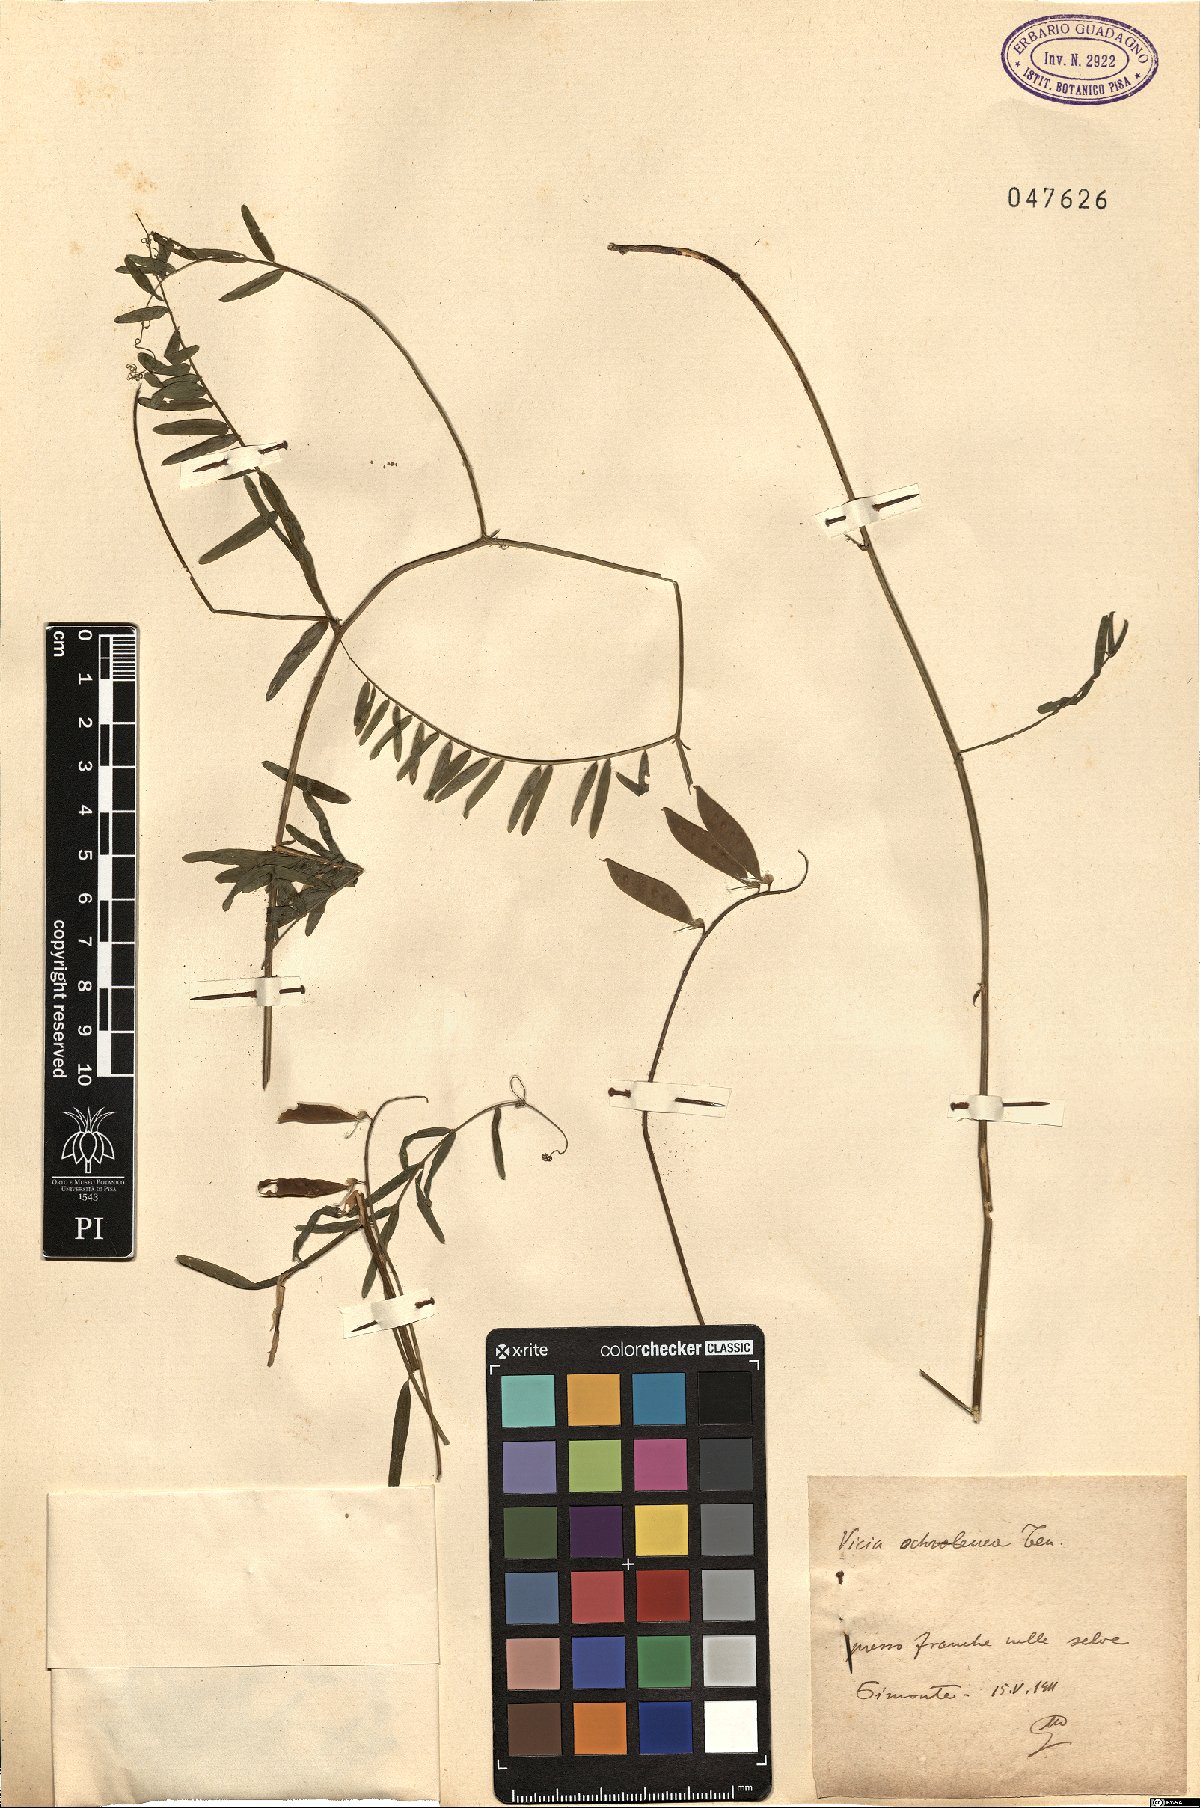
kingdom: Plantae
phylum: Tracheophyta
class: Magnoliopsida
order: Fabales
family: Fabaceae
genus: Vicia
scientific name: Vicia ochroleuca
